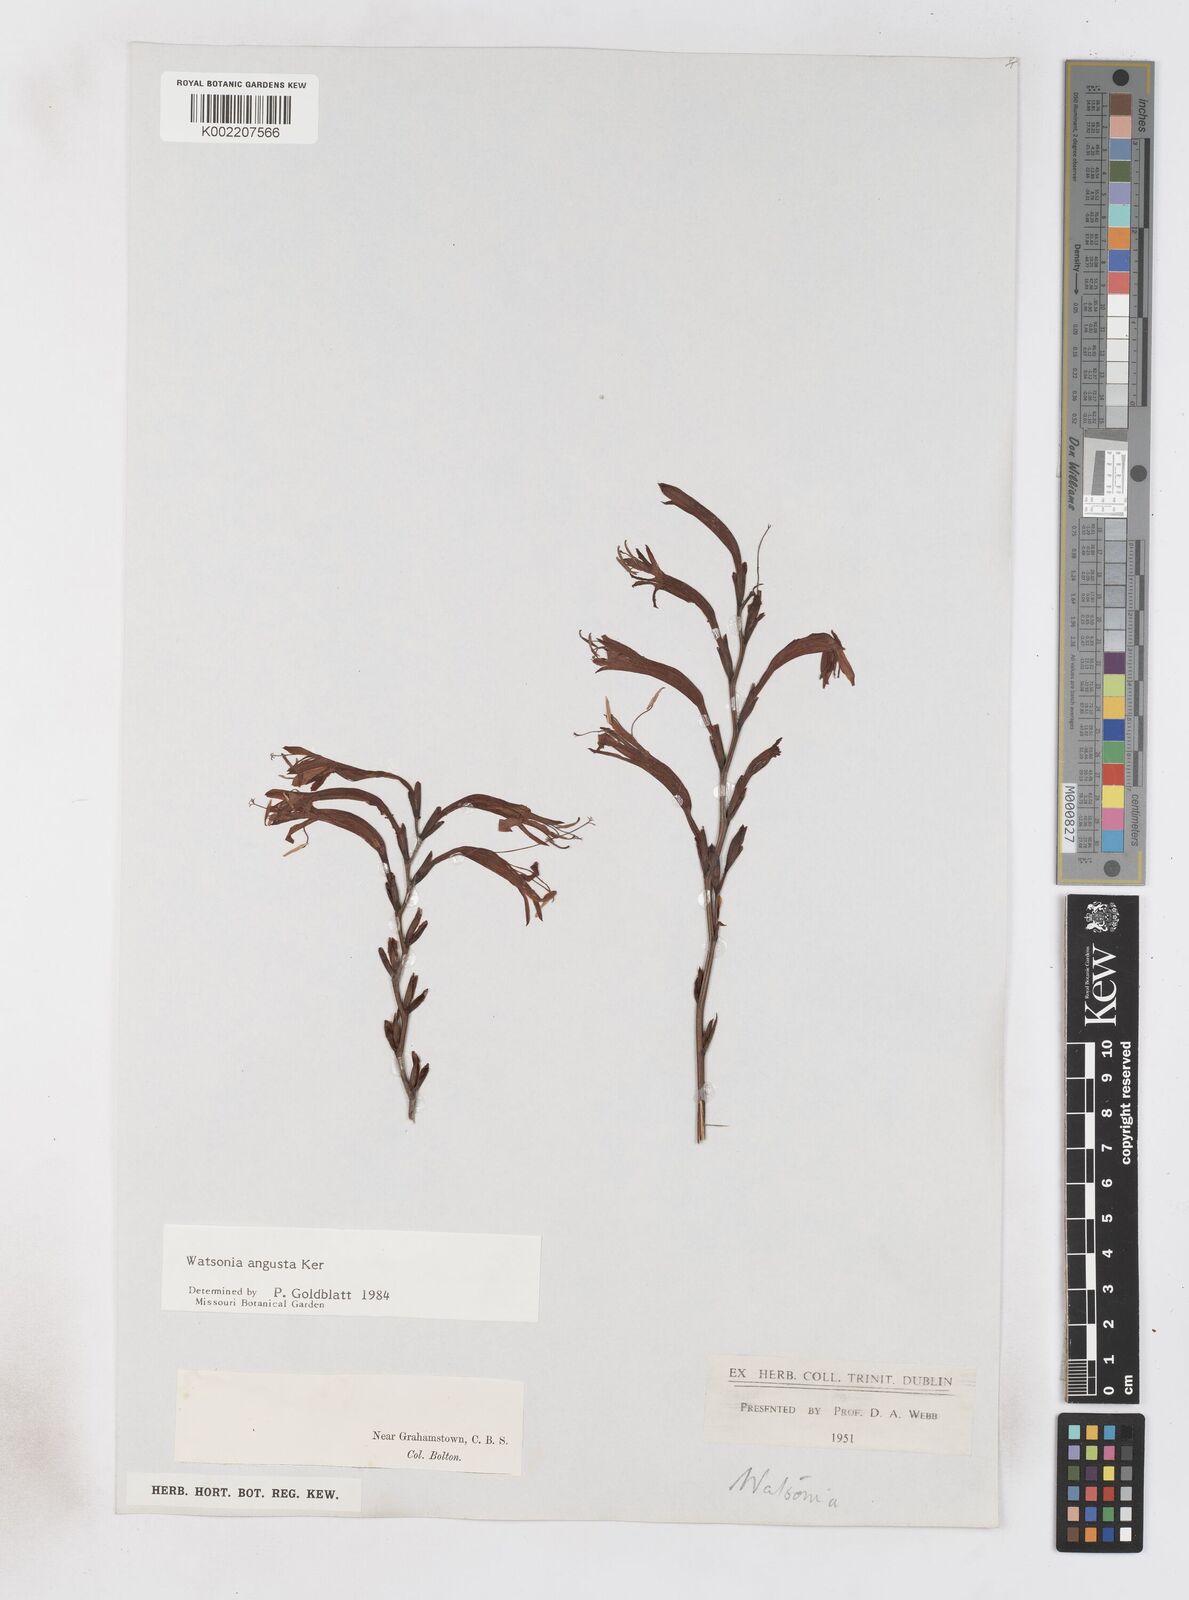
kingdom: Plantae
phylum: Tracheophyta
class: Liliopsida
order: Asparagales
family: Iridaceae
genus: Watsonia
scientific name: Watsonia angusta
